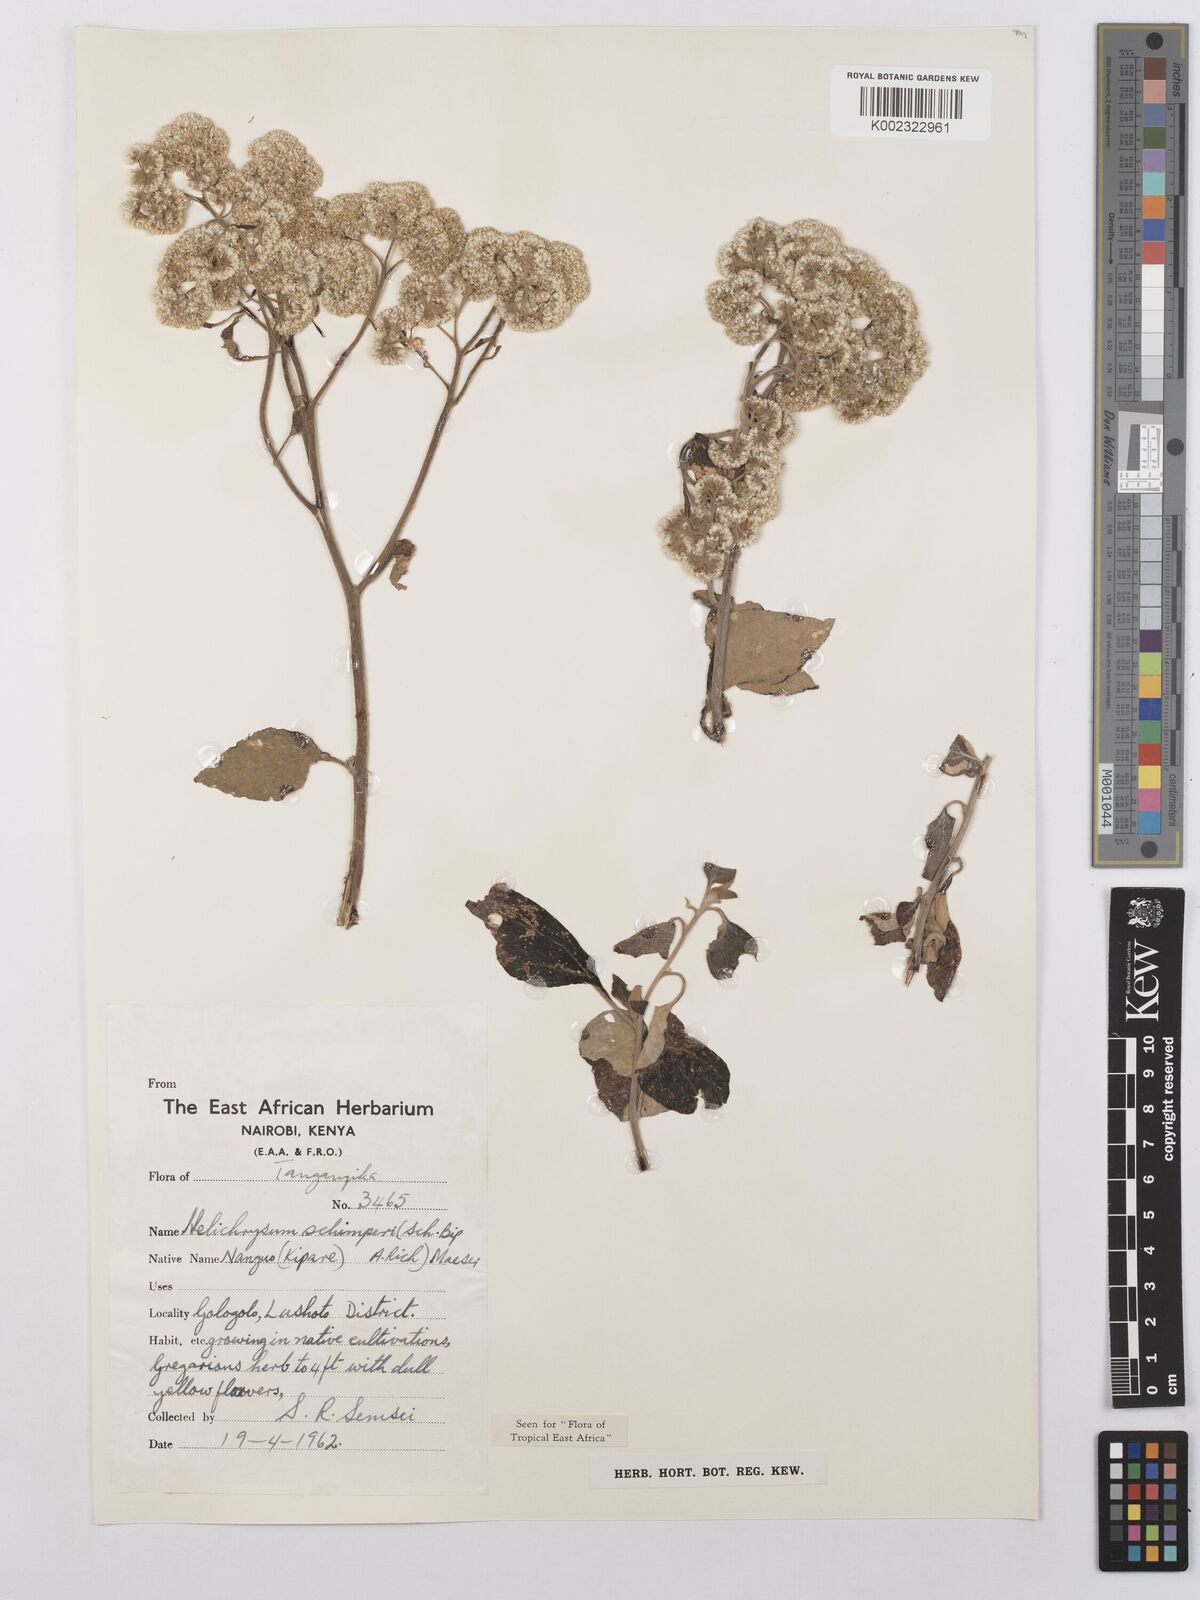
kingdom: Plantae
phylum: Tracheophyta
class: Magnoliopsida
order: Asterales
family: Asteraceae
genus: Helichrysum
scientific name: Helichrysum schimperi
